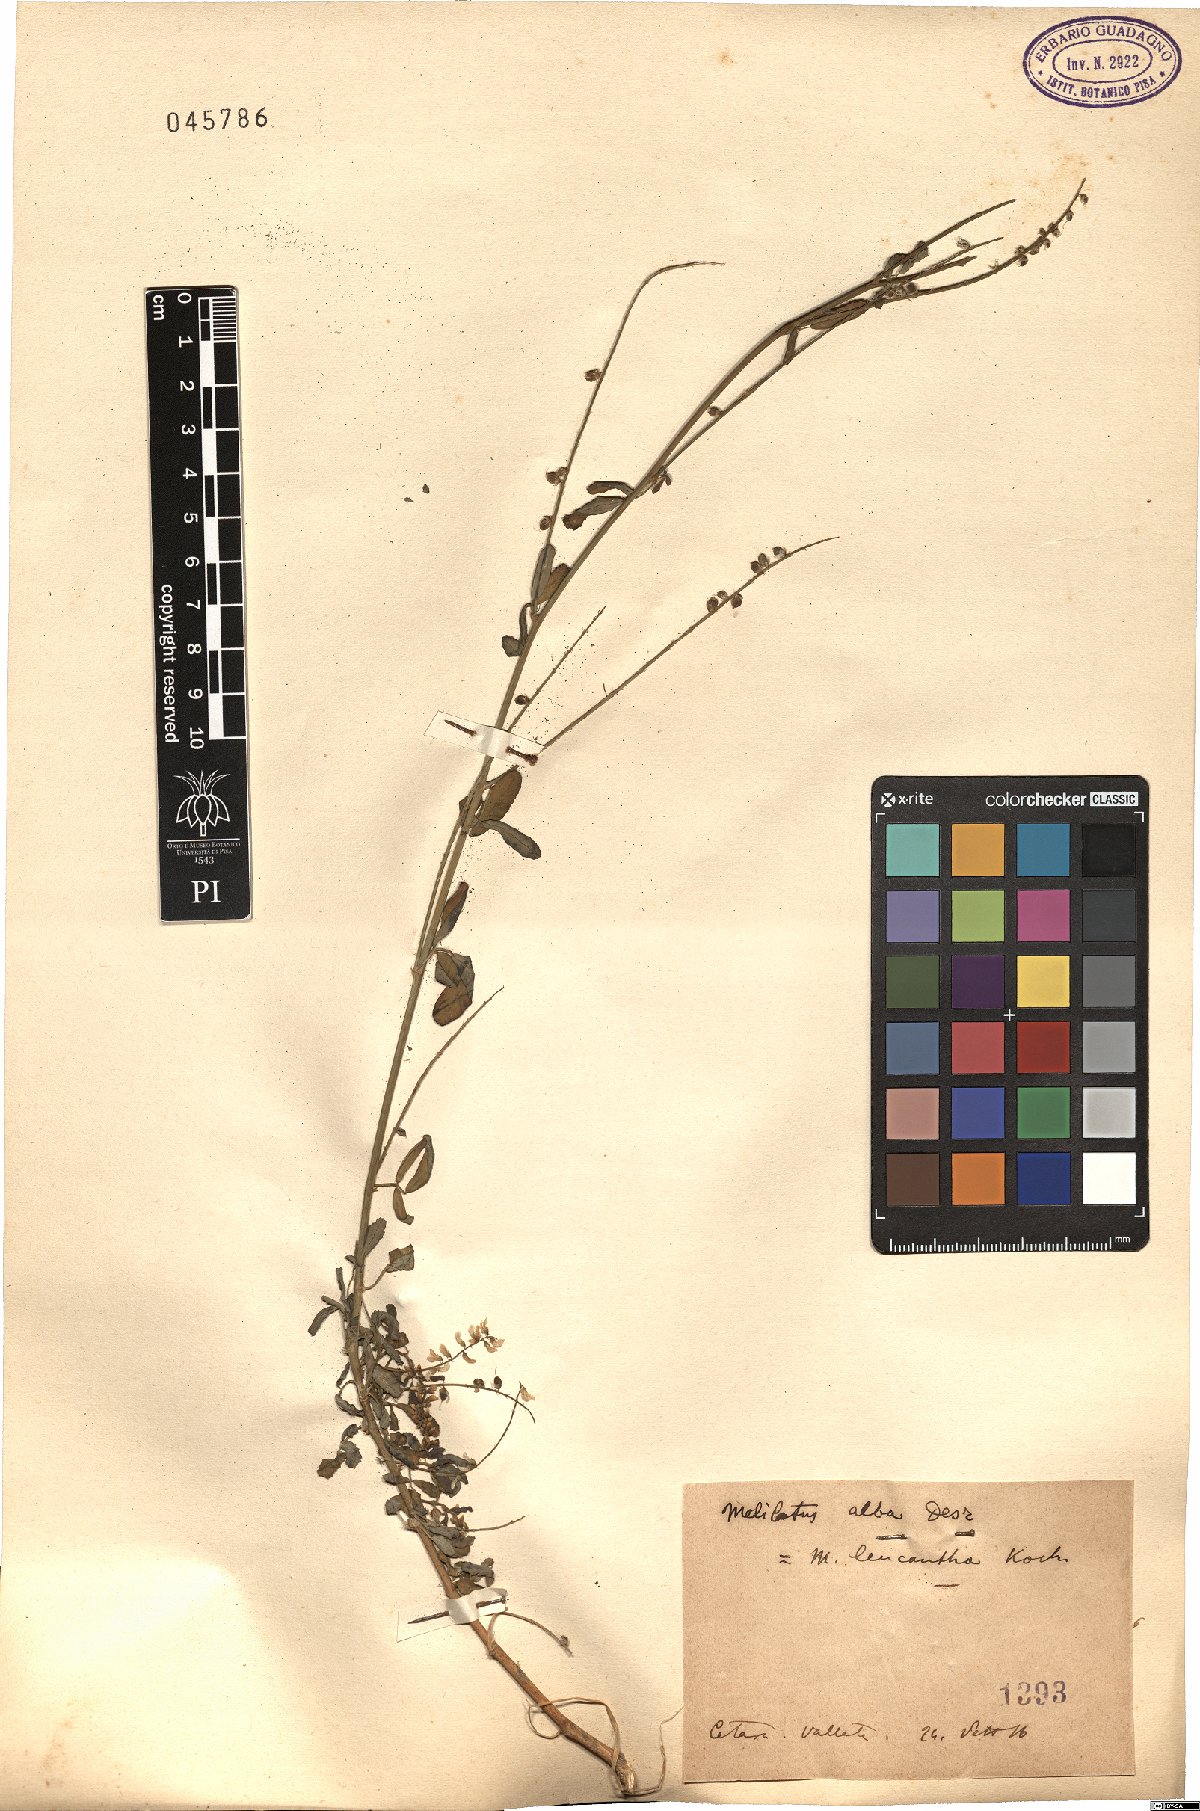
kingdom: Plantae
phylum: Tracheophyta
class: Magnoliopsida
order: Fabales
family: Fabaceae
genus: Melilotus
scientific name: Melilotus albus
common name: White melilot
